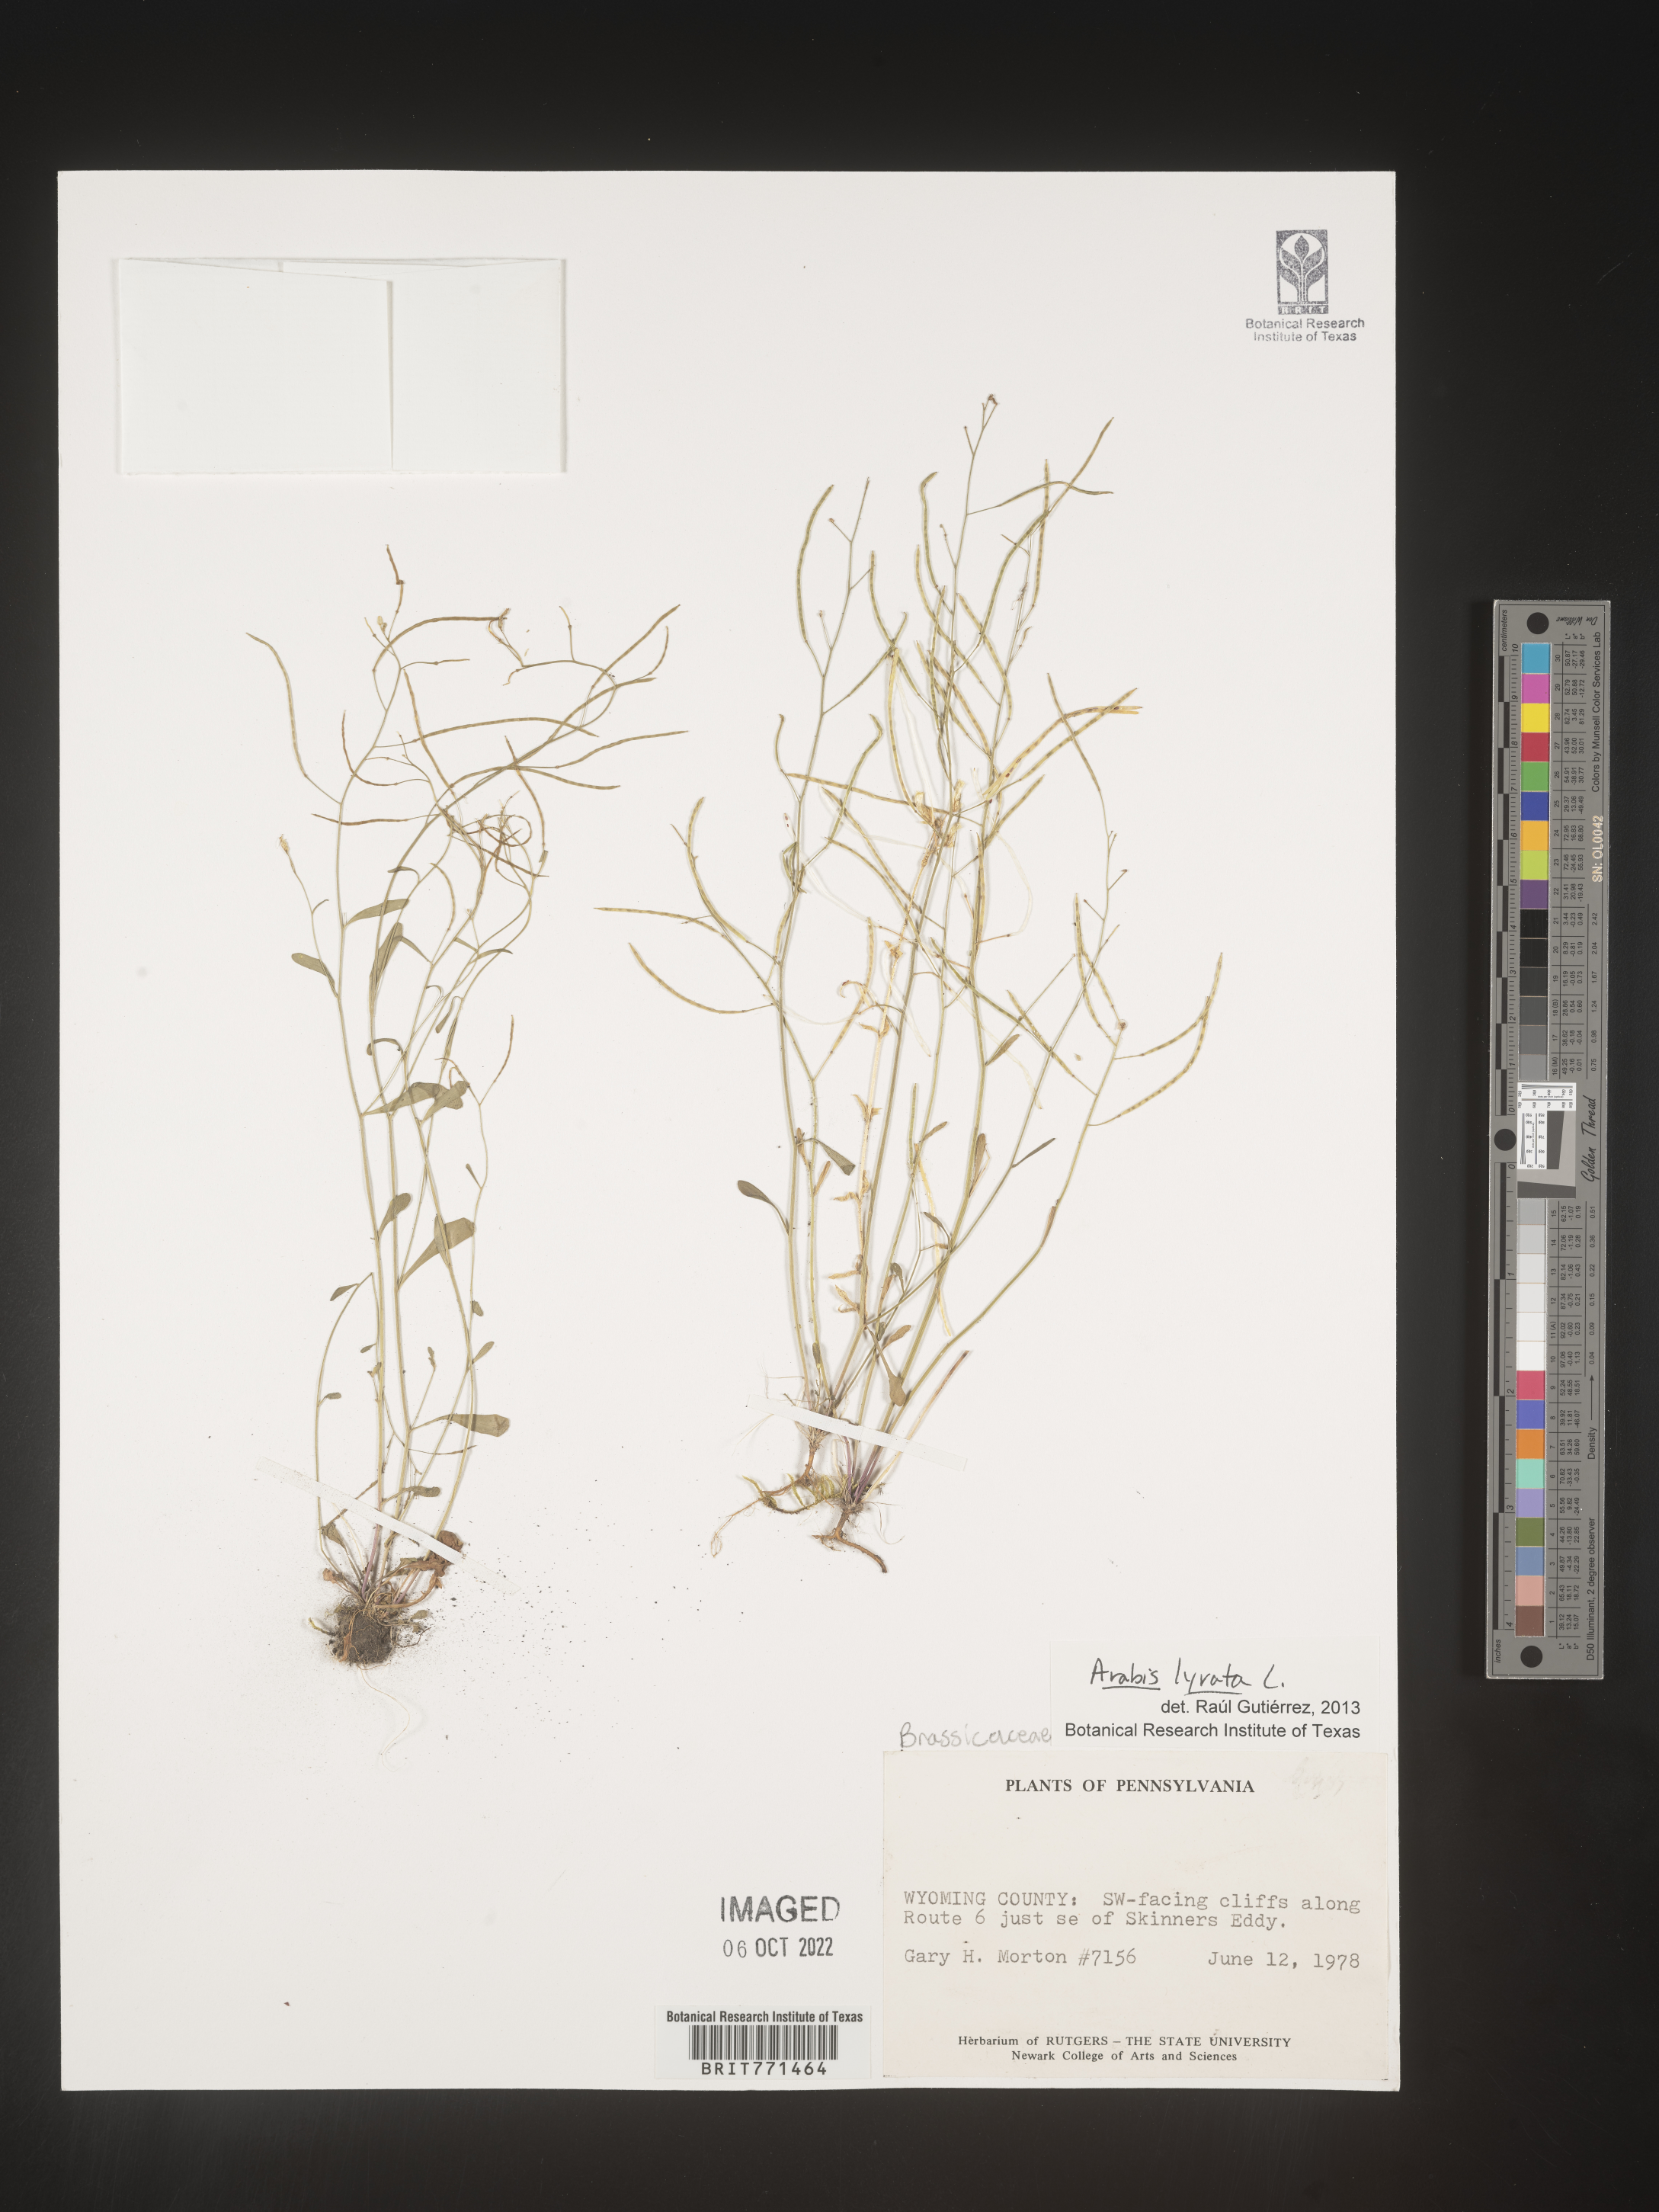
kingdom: Plantae
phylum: Tracheophyta
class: Magnoliopsida
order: Brassicales
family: Brassicaceae
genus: Arabidopsis
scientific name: Arabidopsis lyrata
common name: Lyrate rockcress
